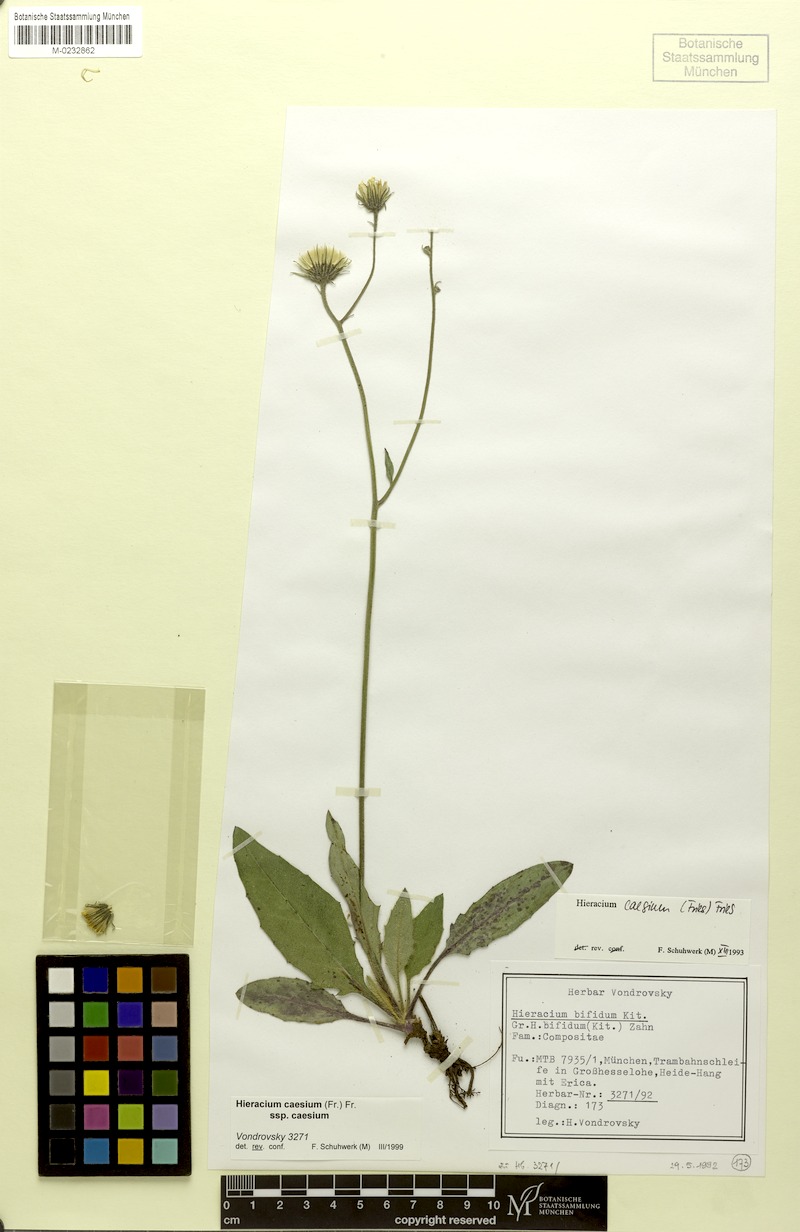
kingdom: Plantae
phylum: Tracheophyta
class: Magnoliopsida
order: Asterales
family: Asteraceae
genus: Hieracium
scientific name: Hieracium caesium
